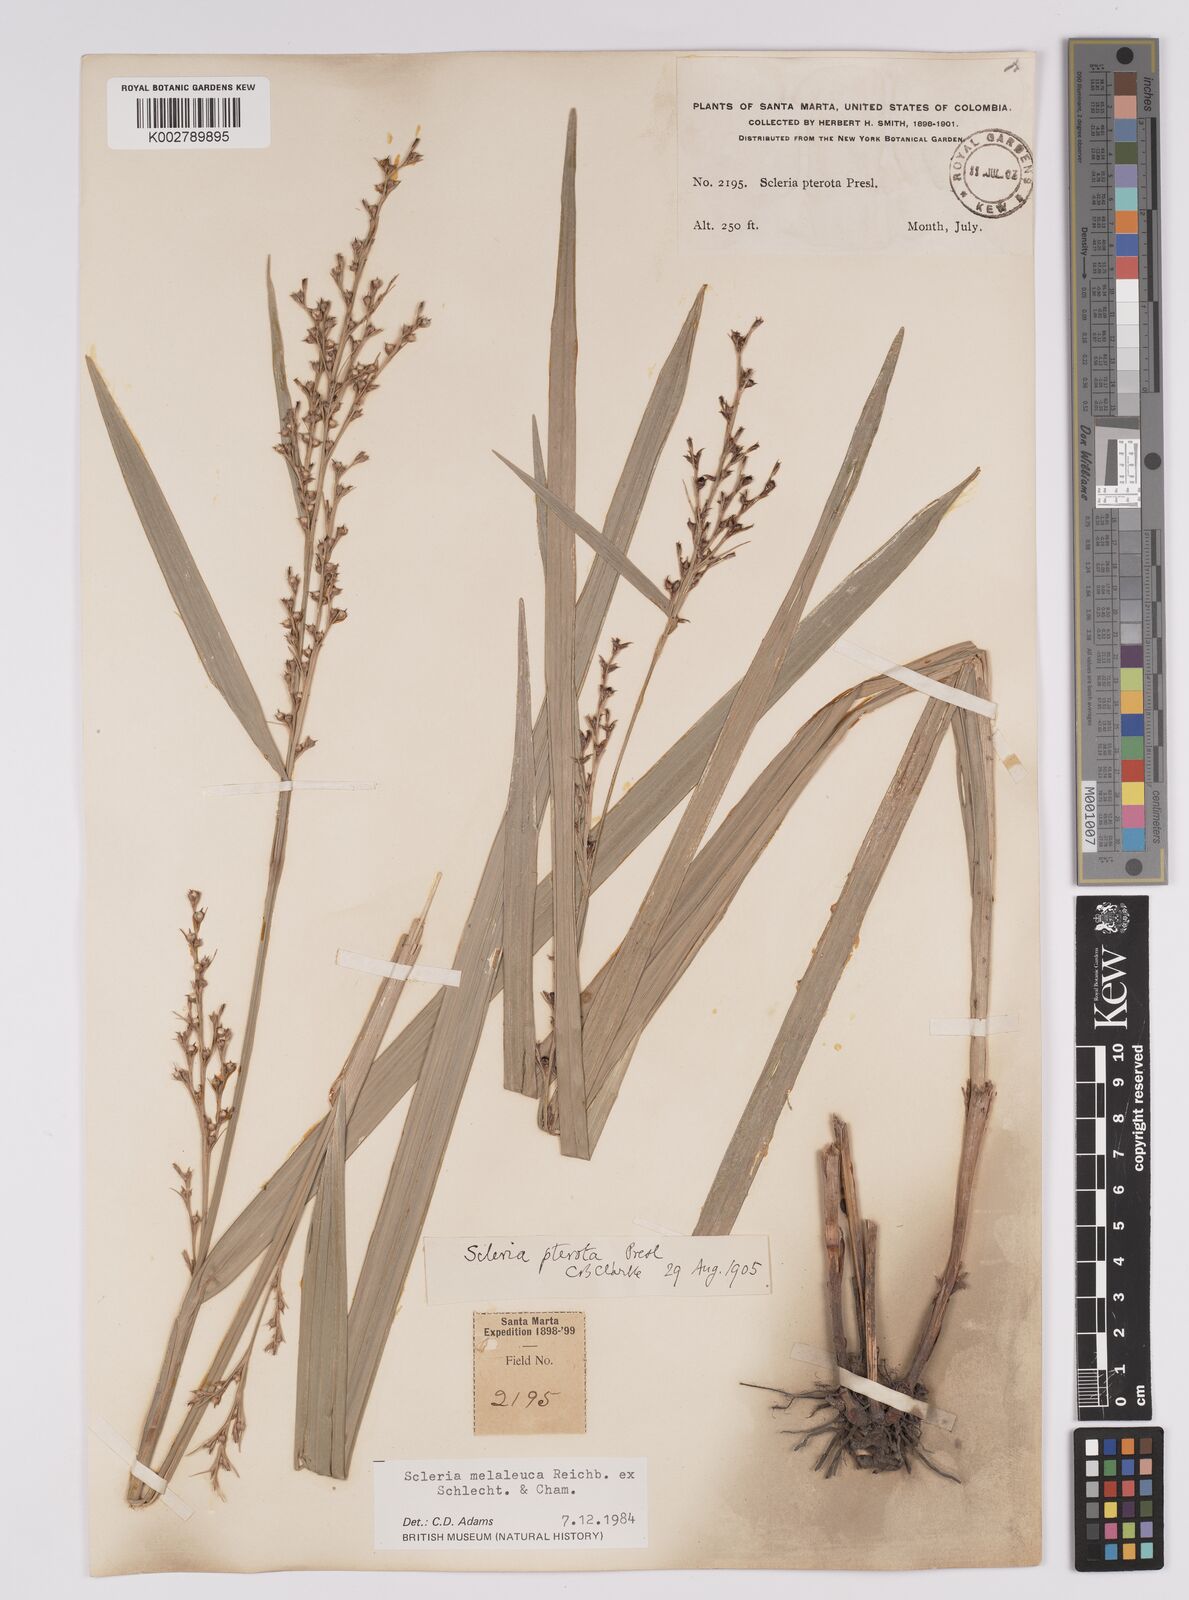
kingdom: Plantae
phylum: Tracheophyta
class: Liliopsida
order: Poales
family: Cyperaceae
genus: Scleria
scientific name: Scleria gaertneri
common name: Cortadera blanca
